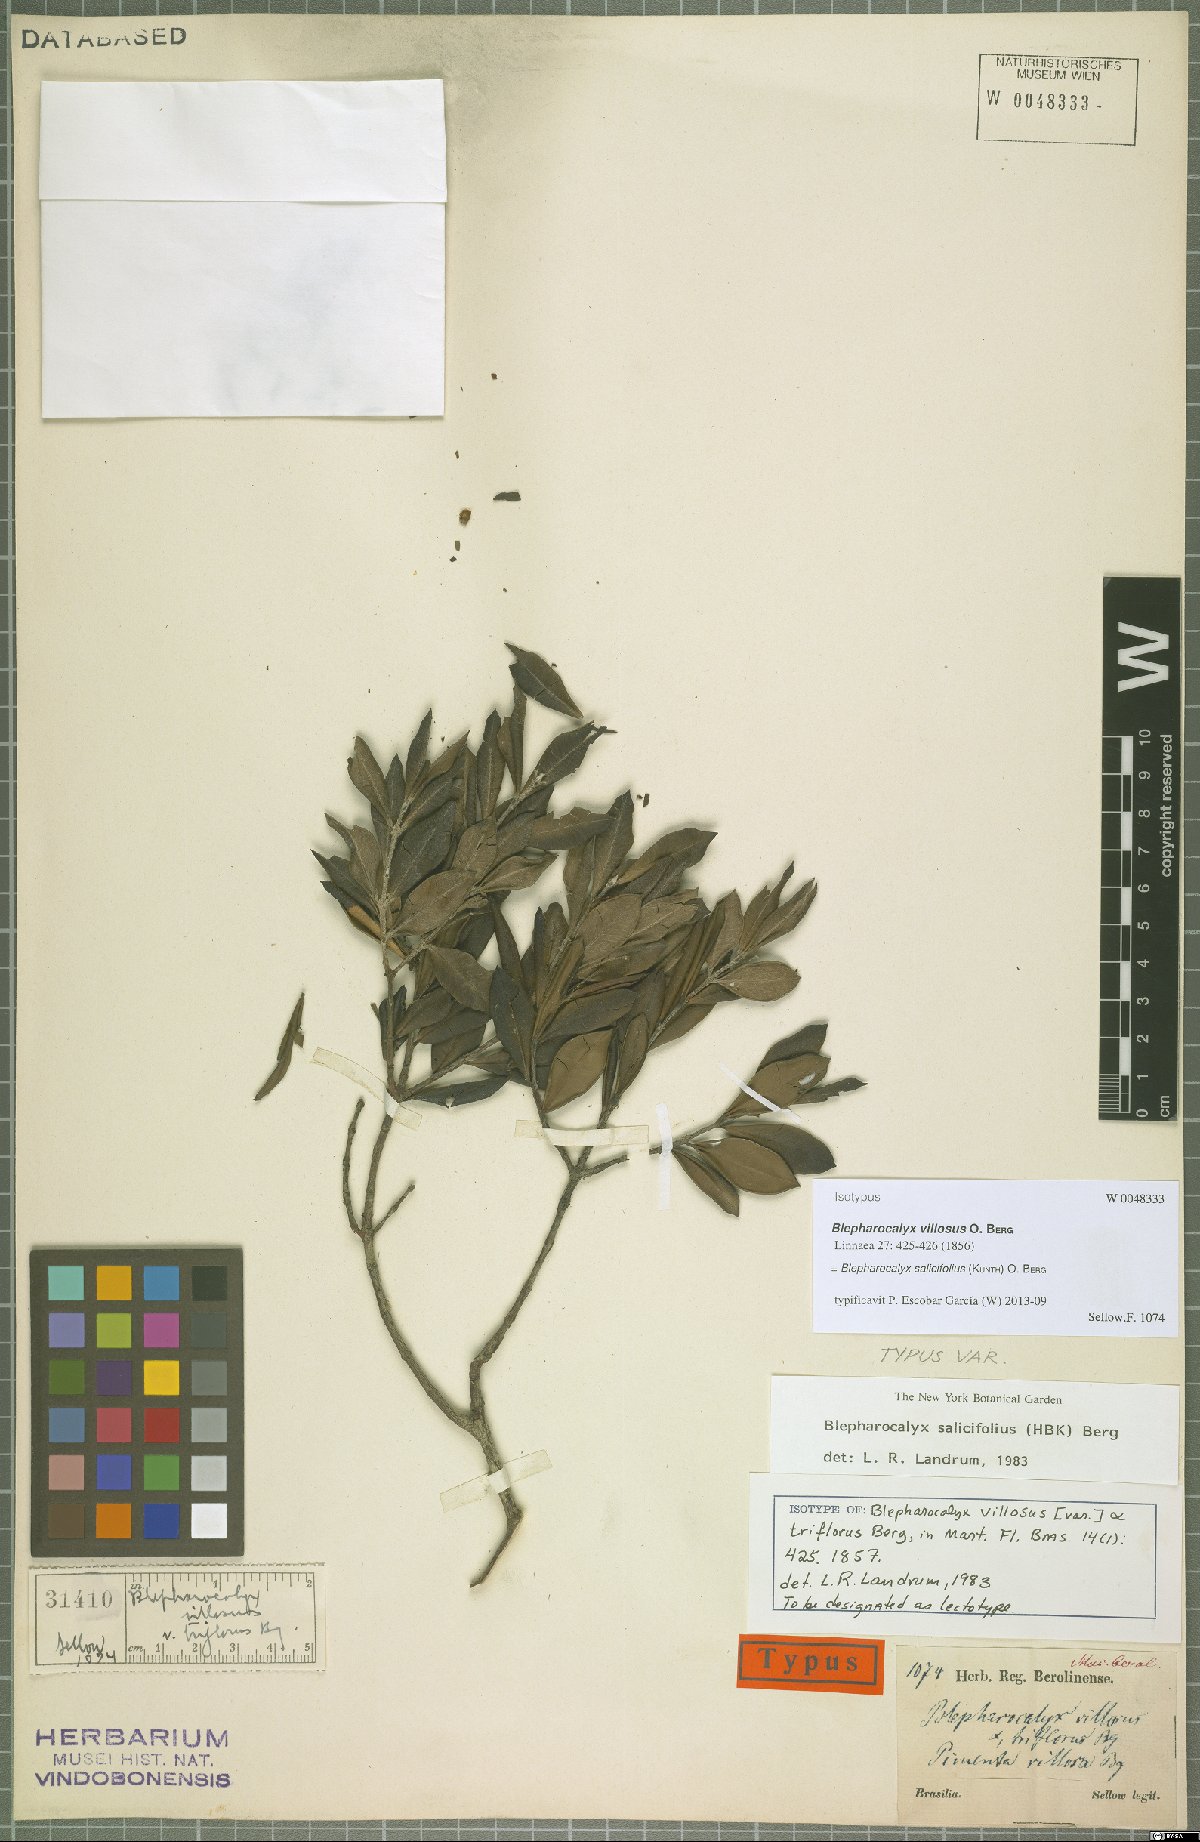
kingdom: Plantae
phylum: Tracheophyta
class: Magnoliopsida
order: Myrtales
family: Myrtaceae
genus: Blepharocalyx
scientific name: Blepharocalyx salicifolius
